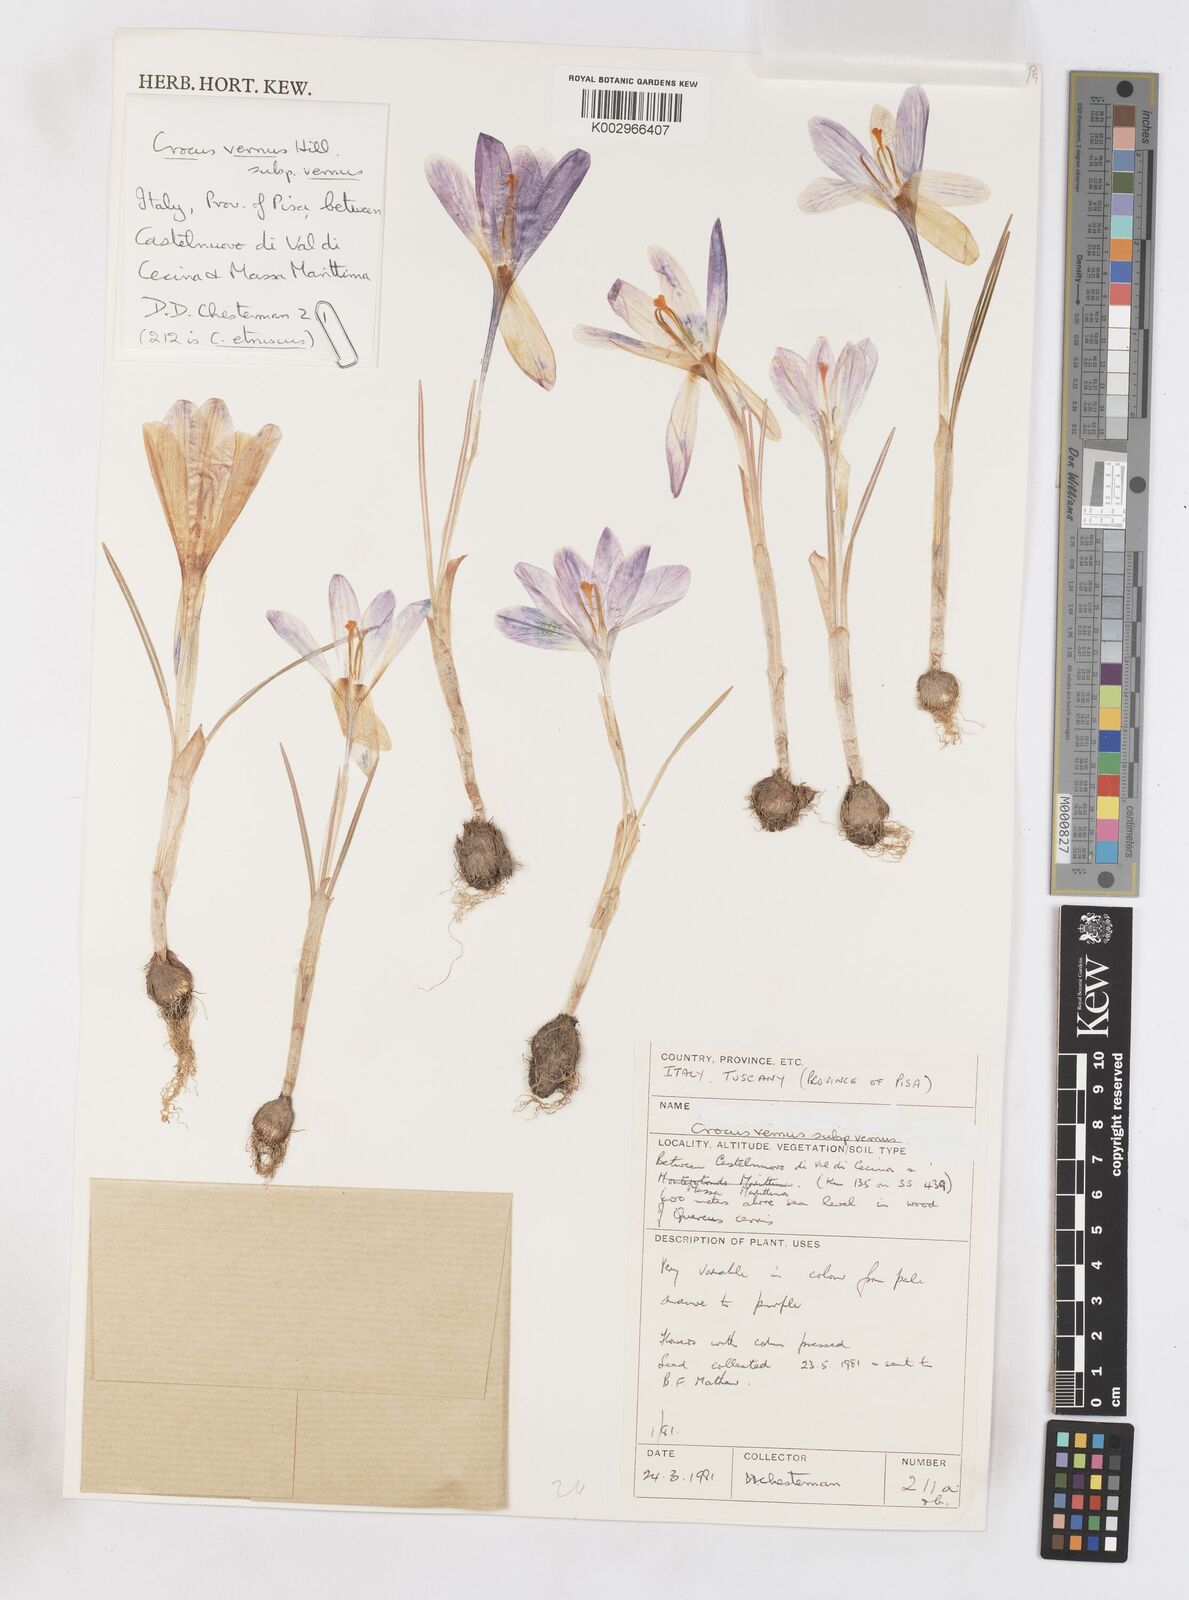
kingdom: Plantae
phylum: Tracheophyta
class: Liliopsida
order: Asparagales
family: Iridaceae
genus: Crocus
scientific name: Crocus vernus
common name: Spring crocus
